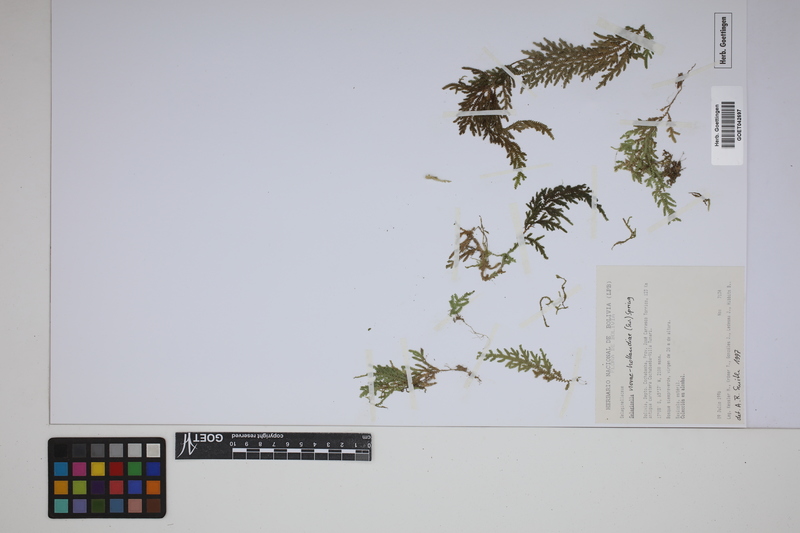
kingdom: Plantae
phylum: Tracheophyta
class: Lycopodiopsida
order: Selaginellales
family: Selaginellaceae
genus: Selaginella
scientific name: Selaginella novae-hollandiae
